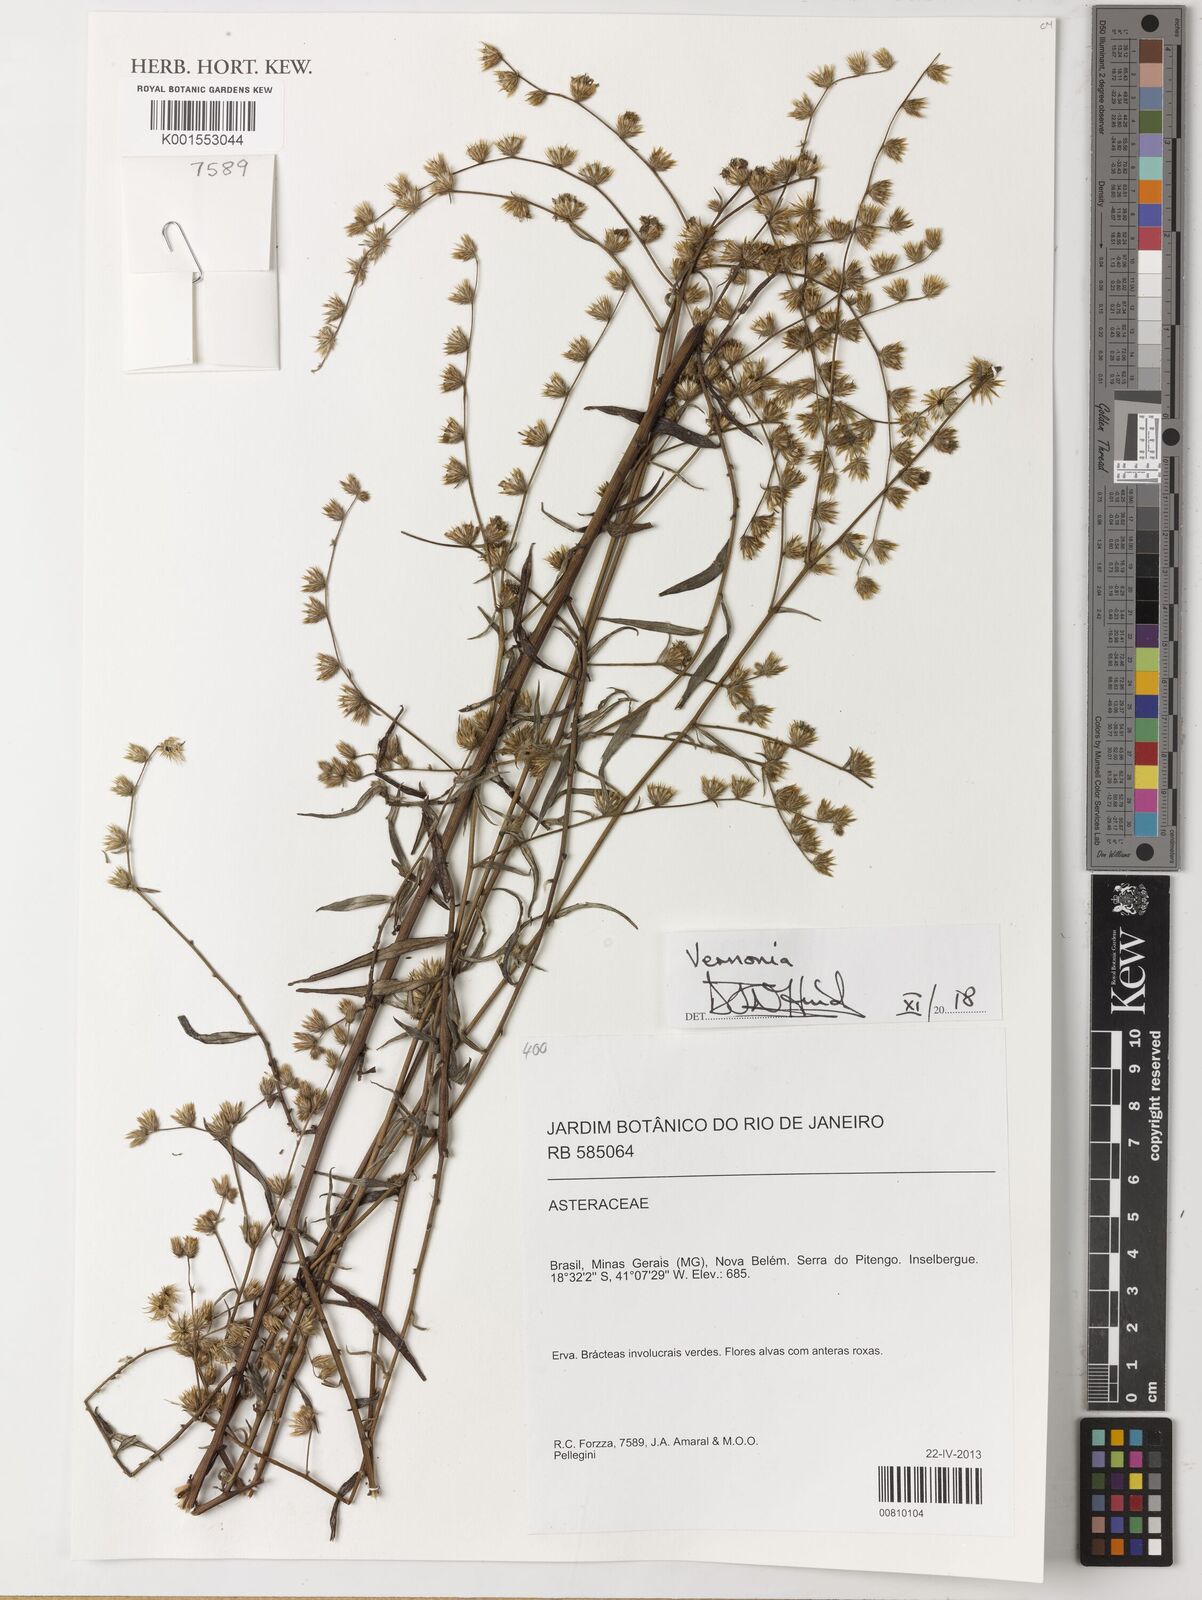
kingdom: Plantae
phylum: Tracheophyta
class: Magnoliopsida
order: Asterales
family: Asteraceae
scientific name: Asteraceae
